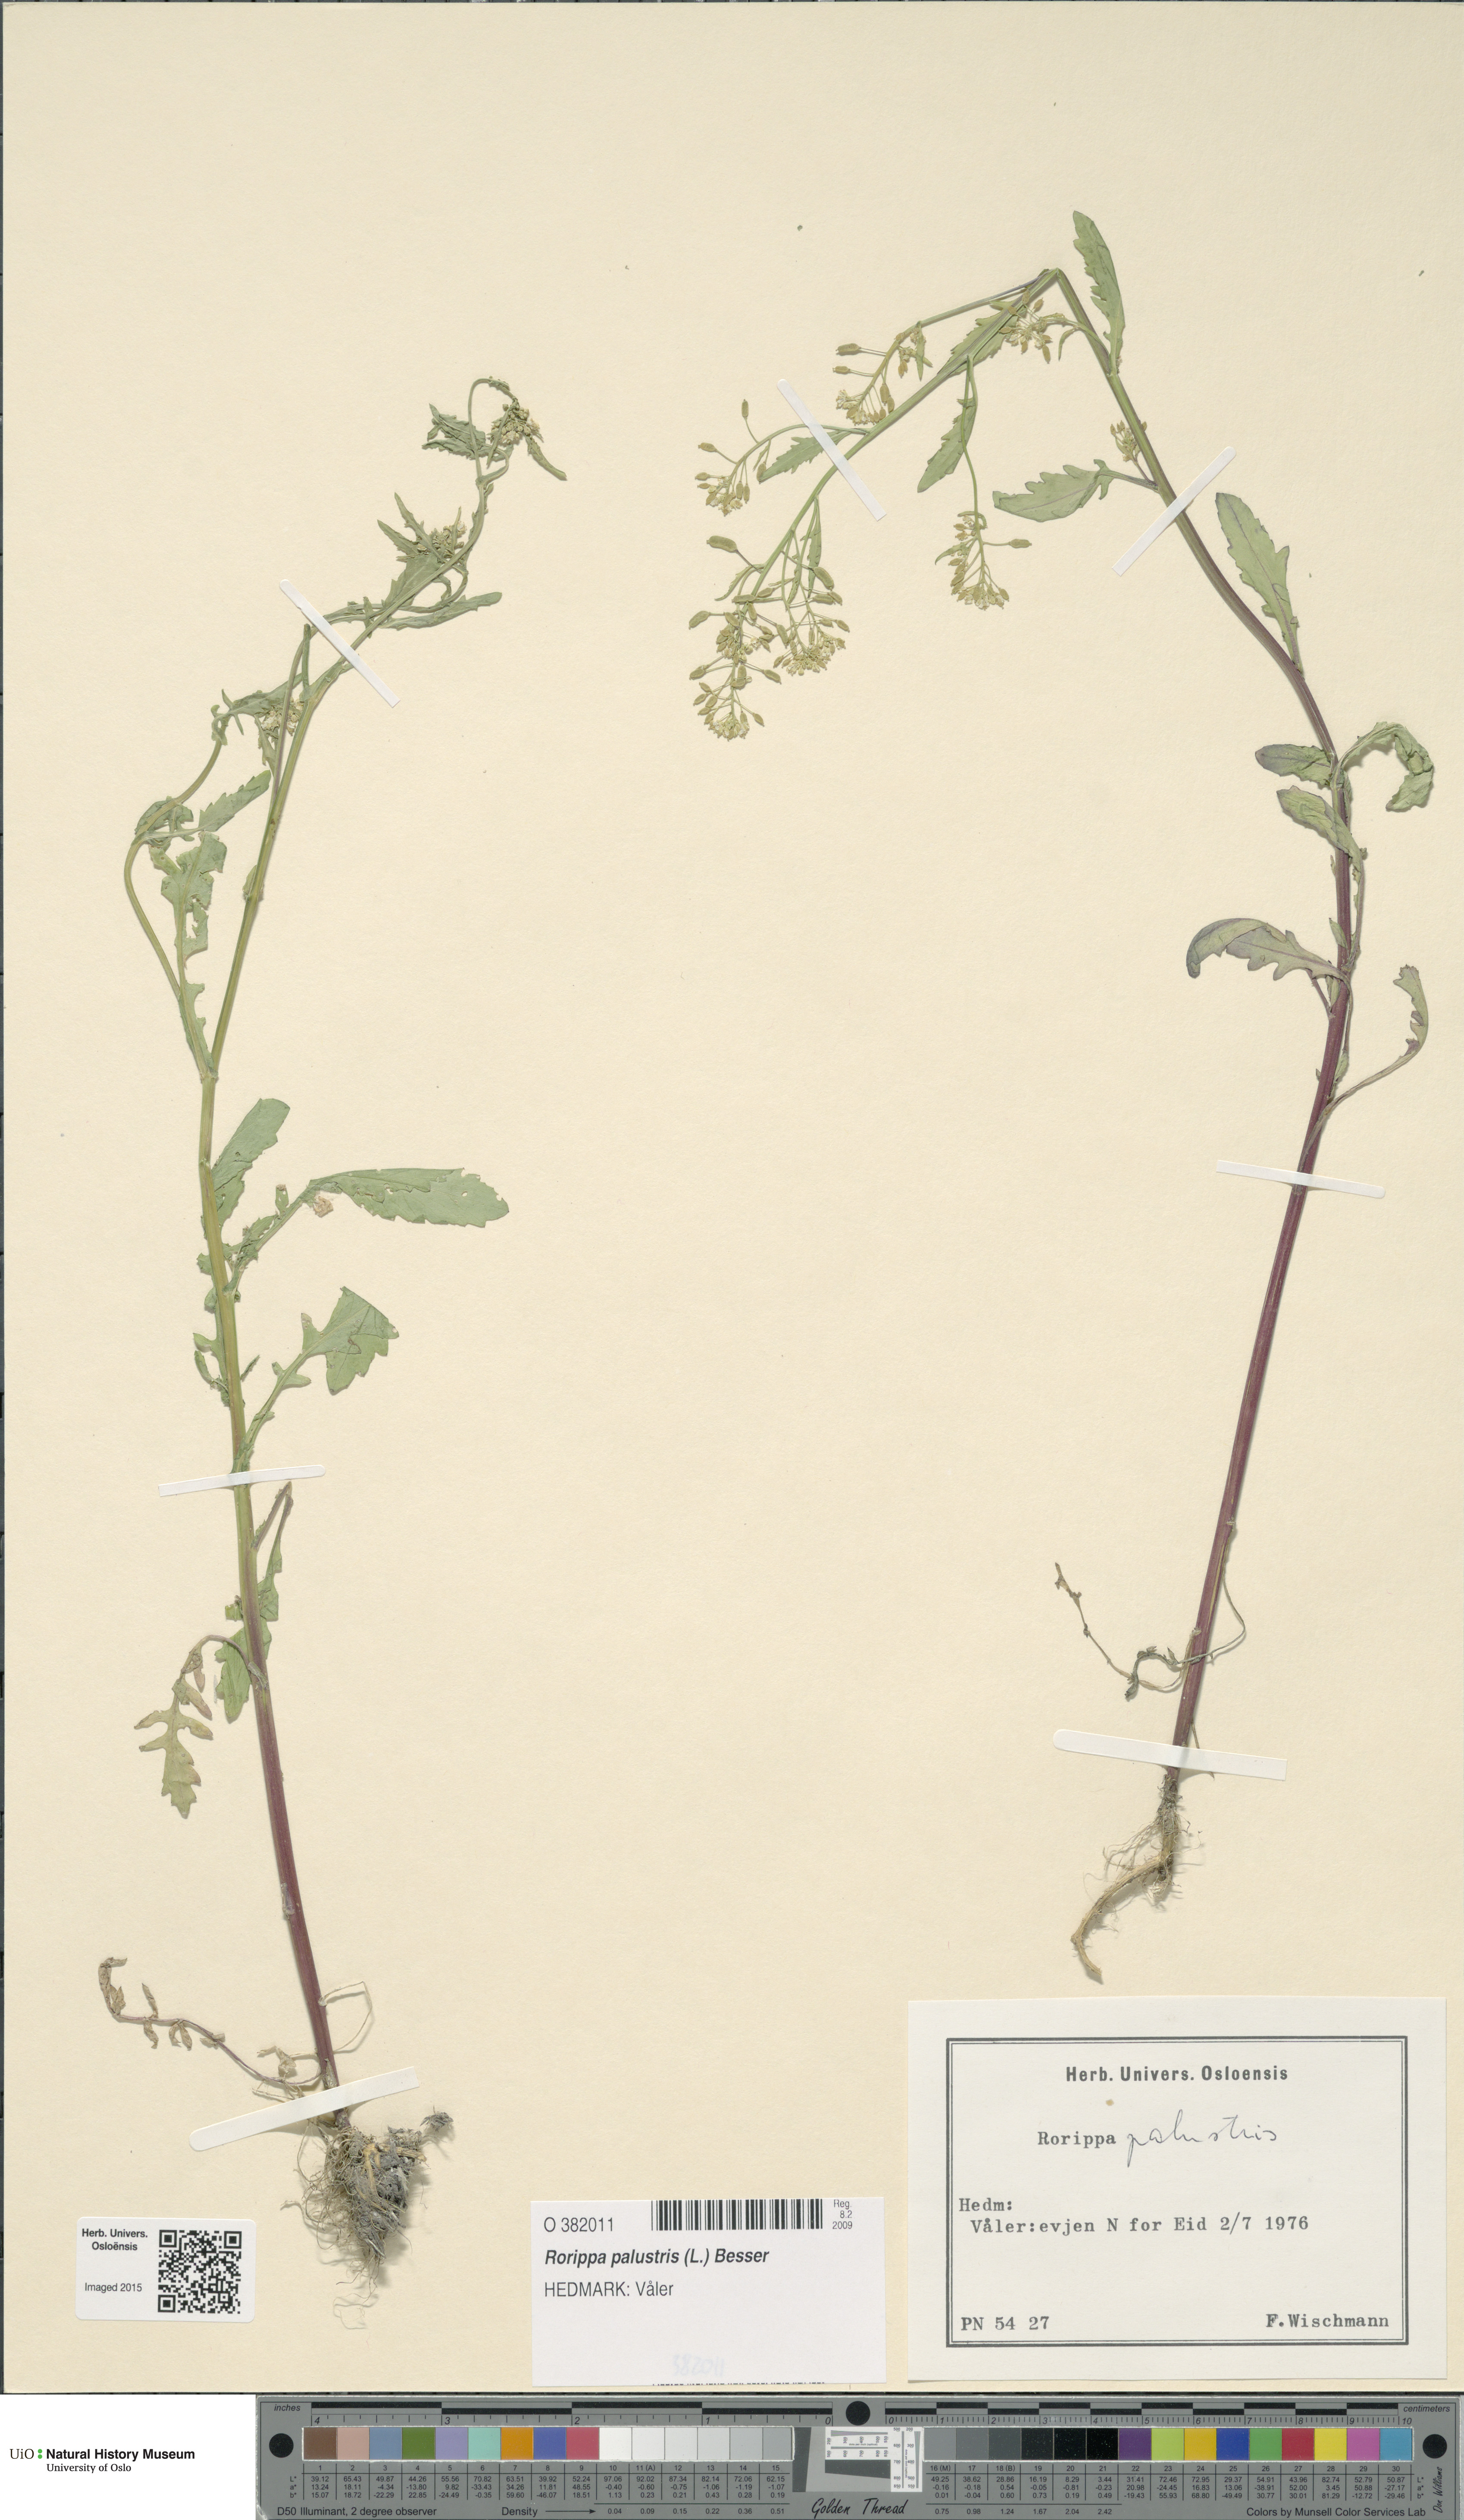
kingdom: Plantae
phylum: Tracheophyta
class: Magnoliopsida
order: Brassicales
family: Brassicaceae
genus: Rorippa
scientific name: Rorippa palustris
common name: Marsh yellow-cress
